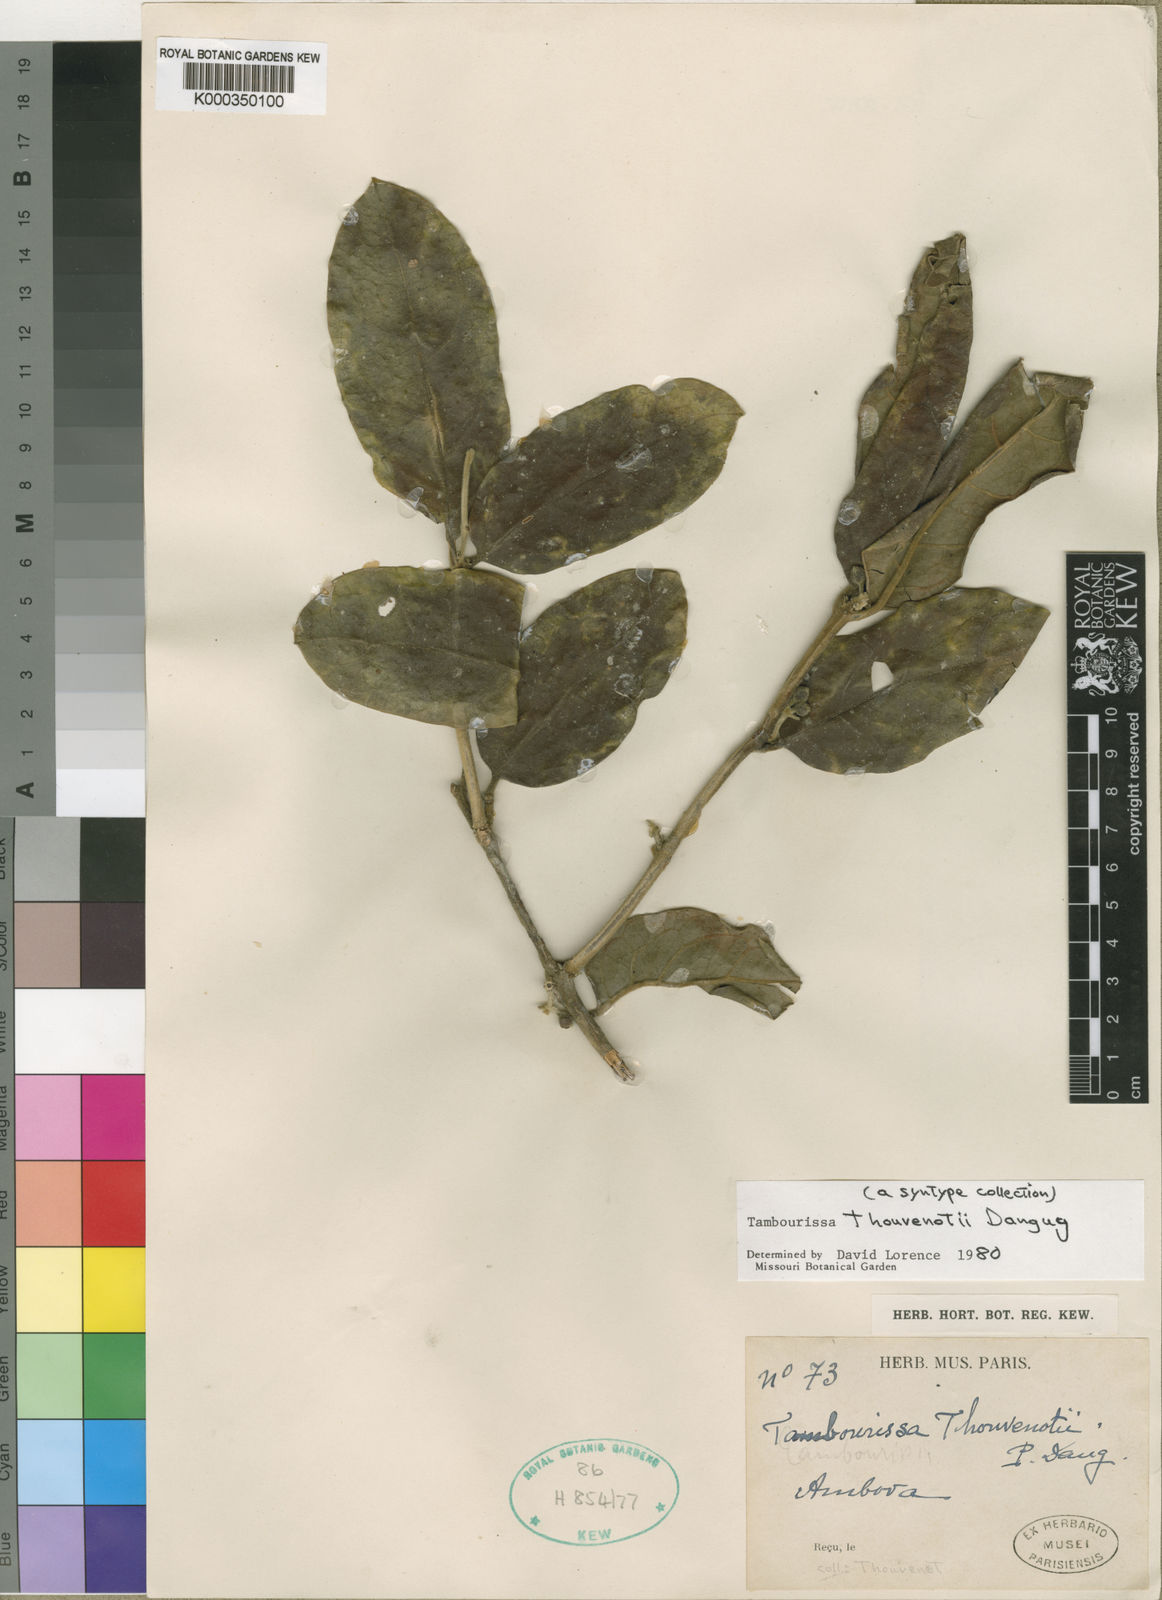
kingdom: Plantae
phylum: Tracheophyta
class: Magnoliopsida
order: Laurales
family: Monimiaceae
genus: Tambourissa
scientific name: Tambourissa thouvenotii
